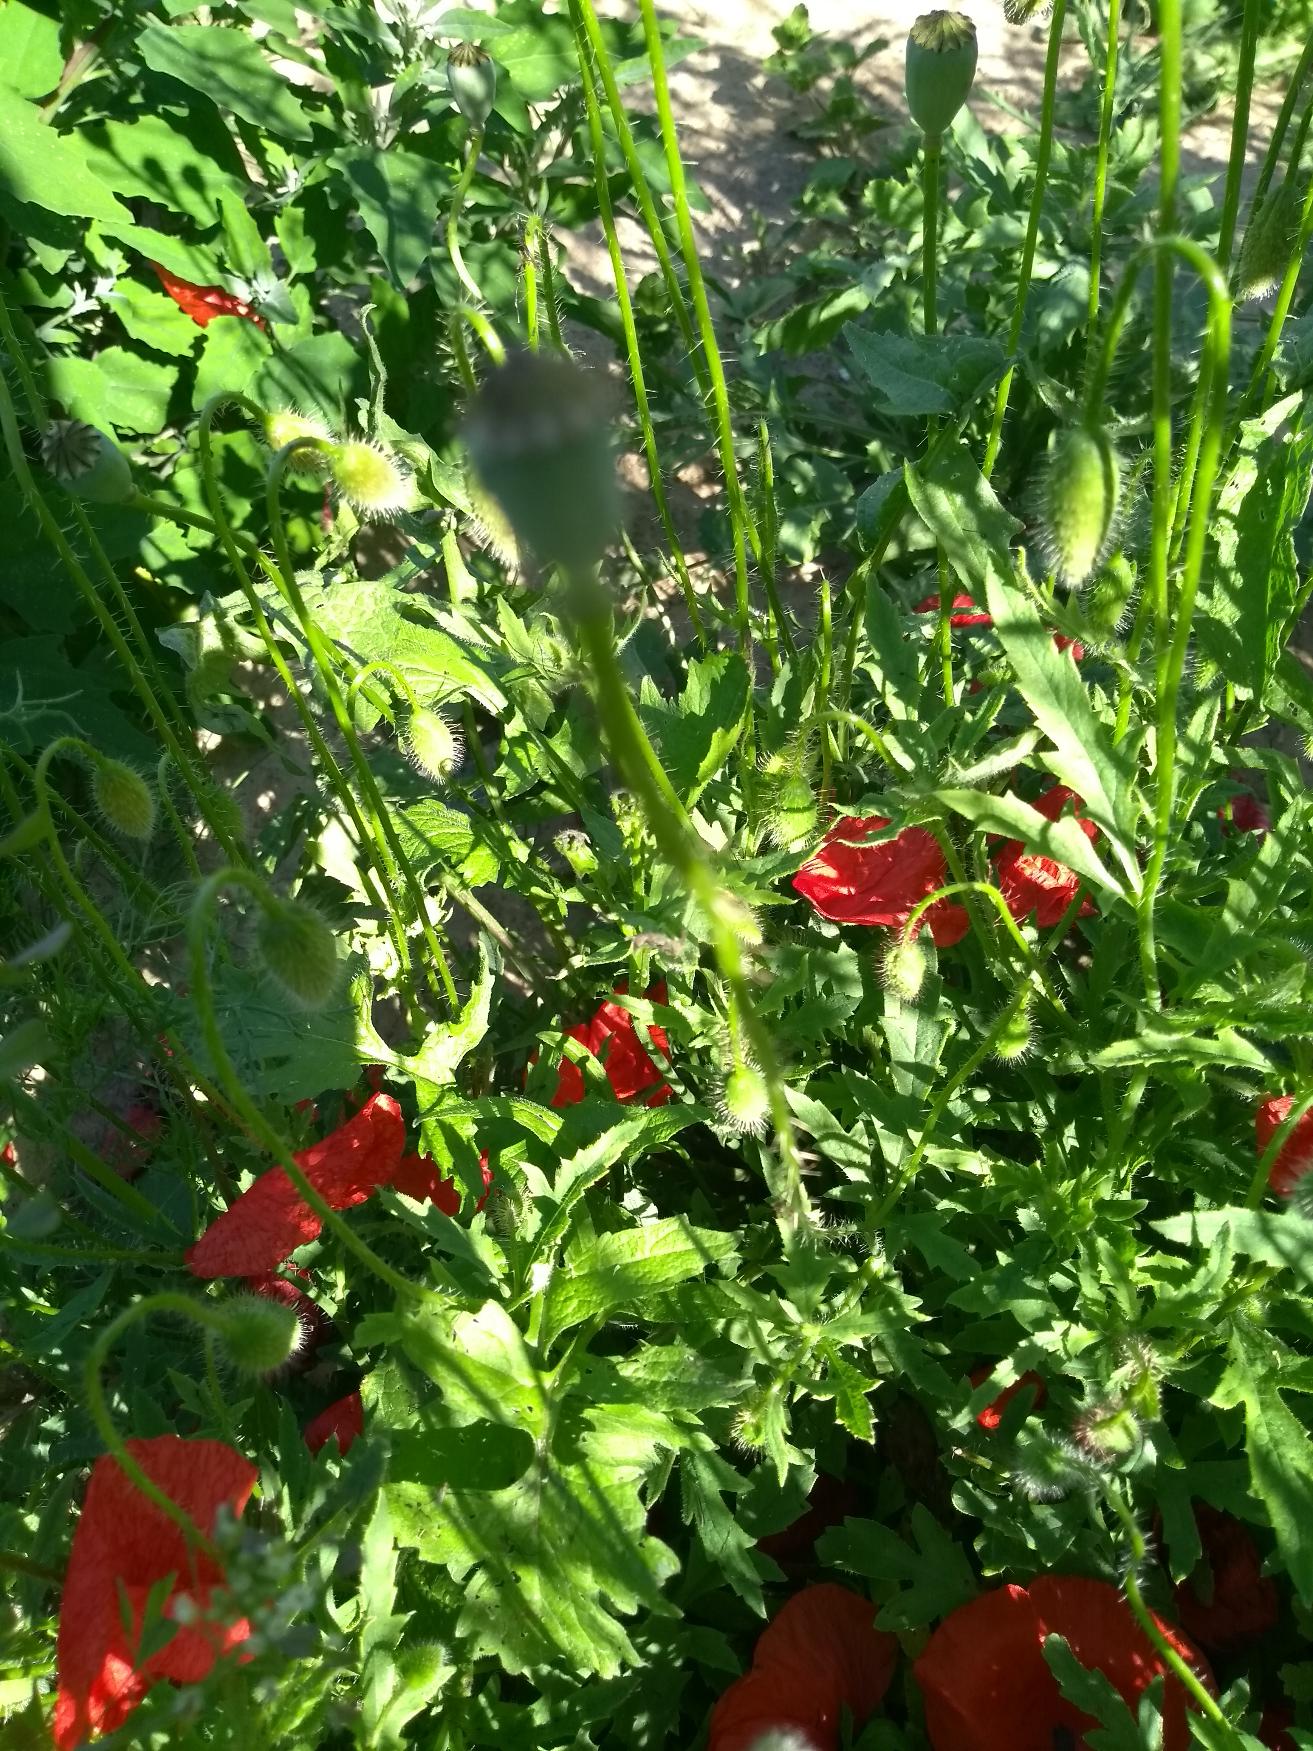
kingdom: Plantae
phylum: Tracheophyta
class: Magnoliopsida
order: Ranunculales
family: Papaveraceae
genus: Papaver
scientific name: Papaver dubium
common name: Gærde-valmue
